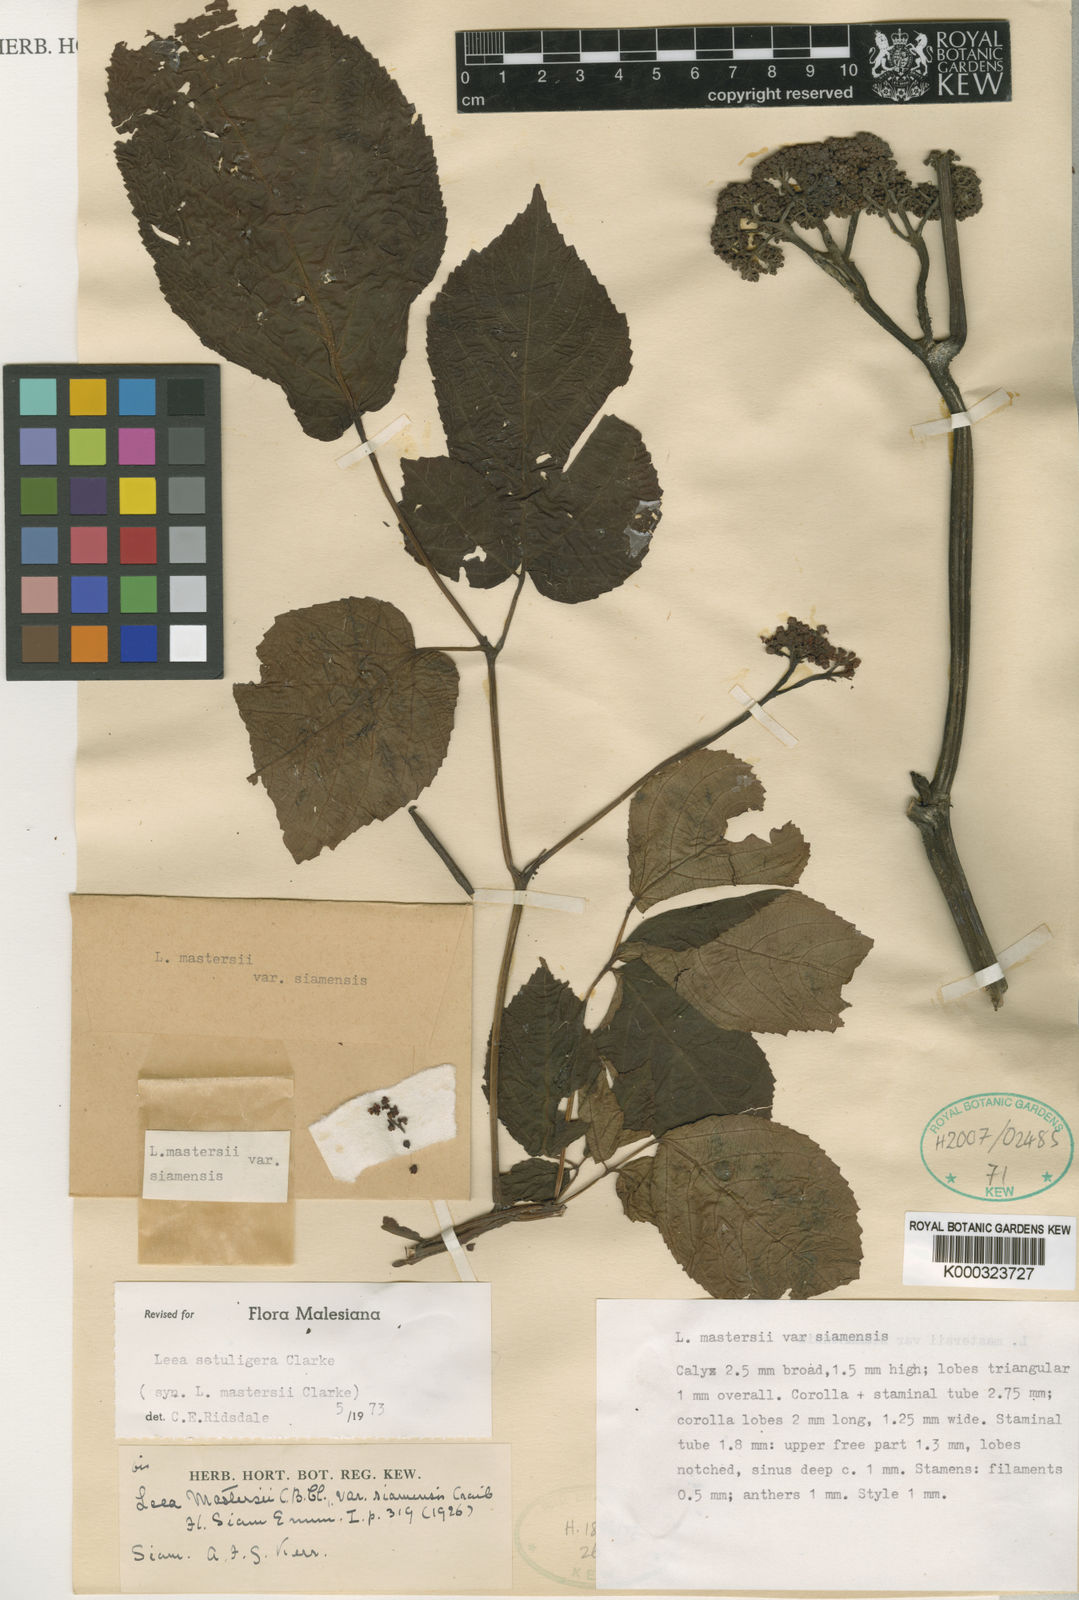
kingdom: Plantae
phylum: Tracheophyta
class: Magnoliopsida
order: Vitales
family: Vitaceae
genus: Leea
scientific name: Leea setuligera
